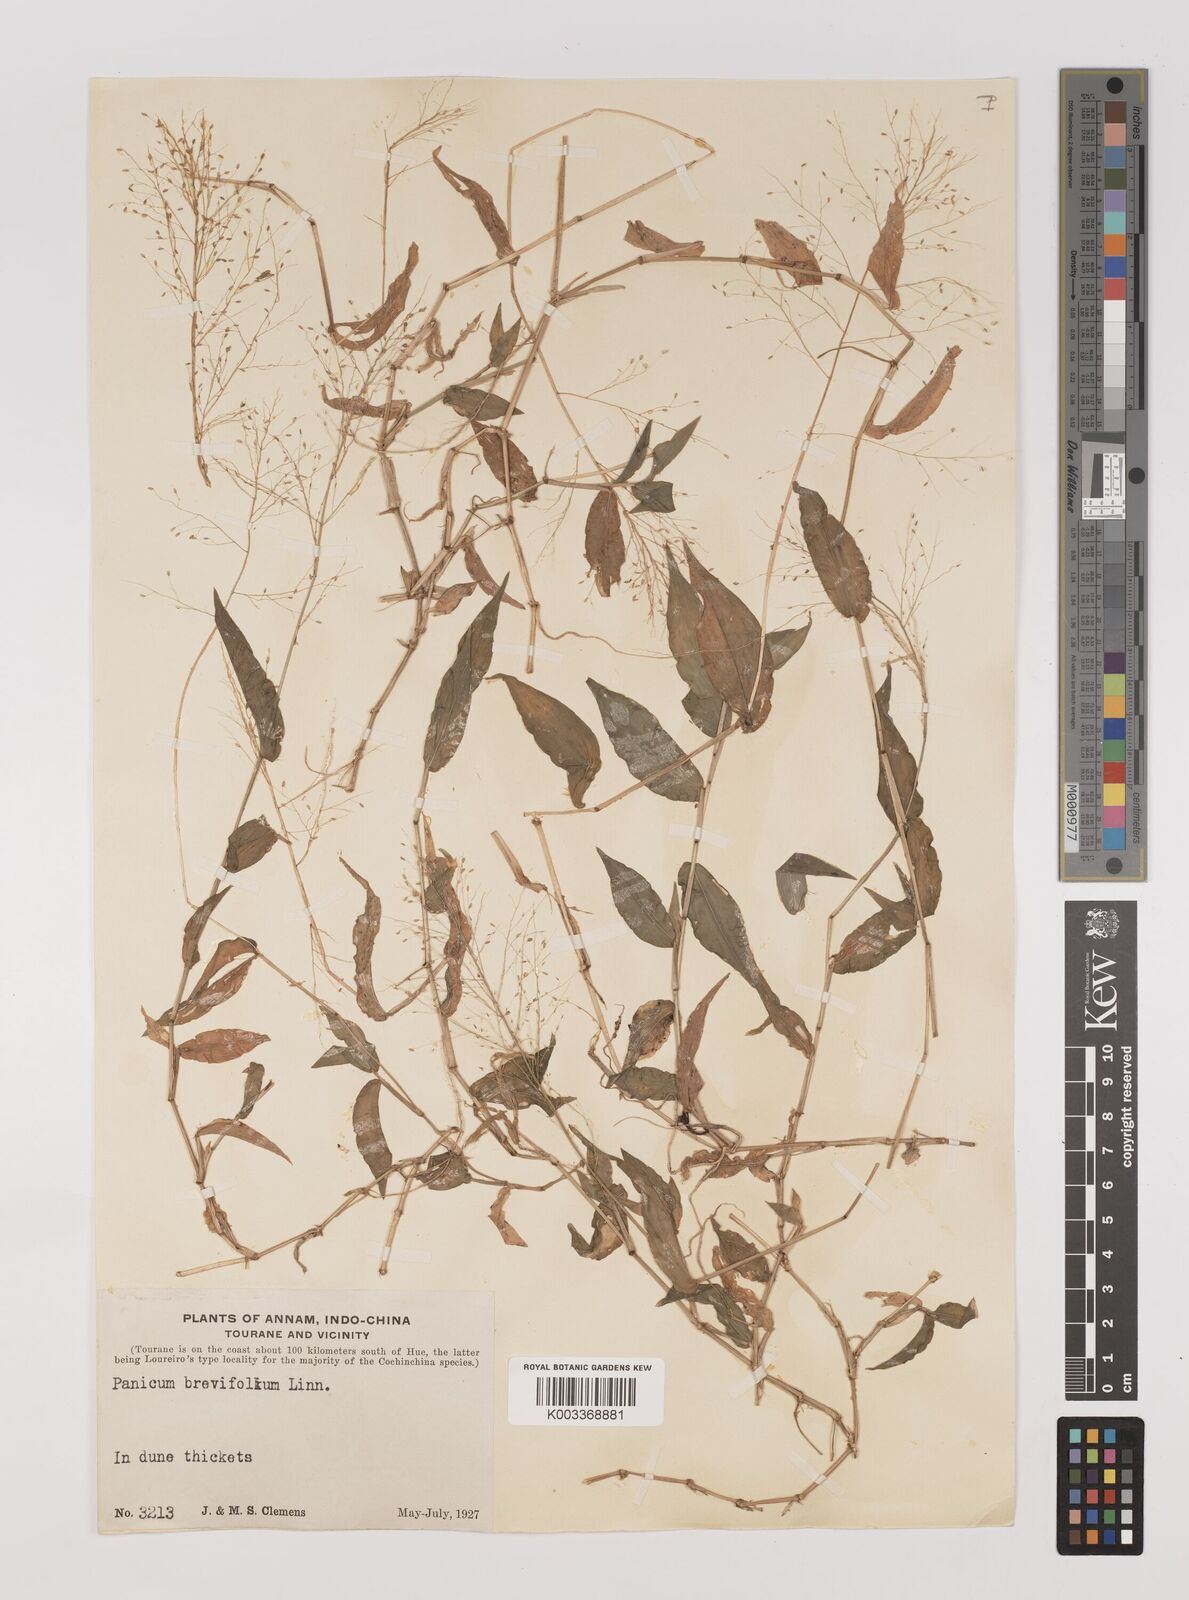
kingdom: Plantae
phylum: Tracheophyta
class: Liliopsida
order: Poales
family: Poaceae
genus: Panicum
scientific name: Panicum brevifolium
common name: Shortleaf panic grass
